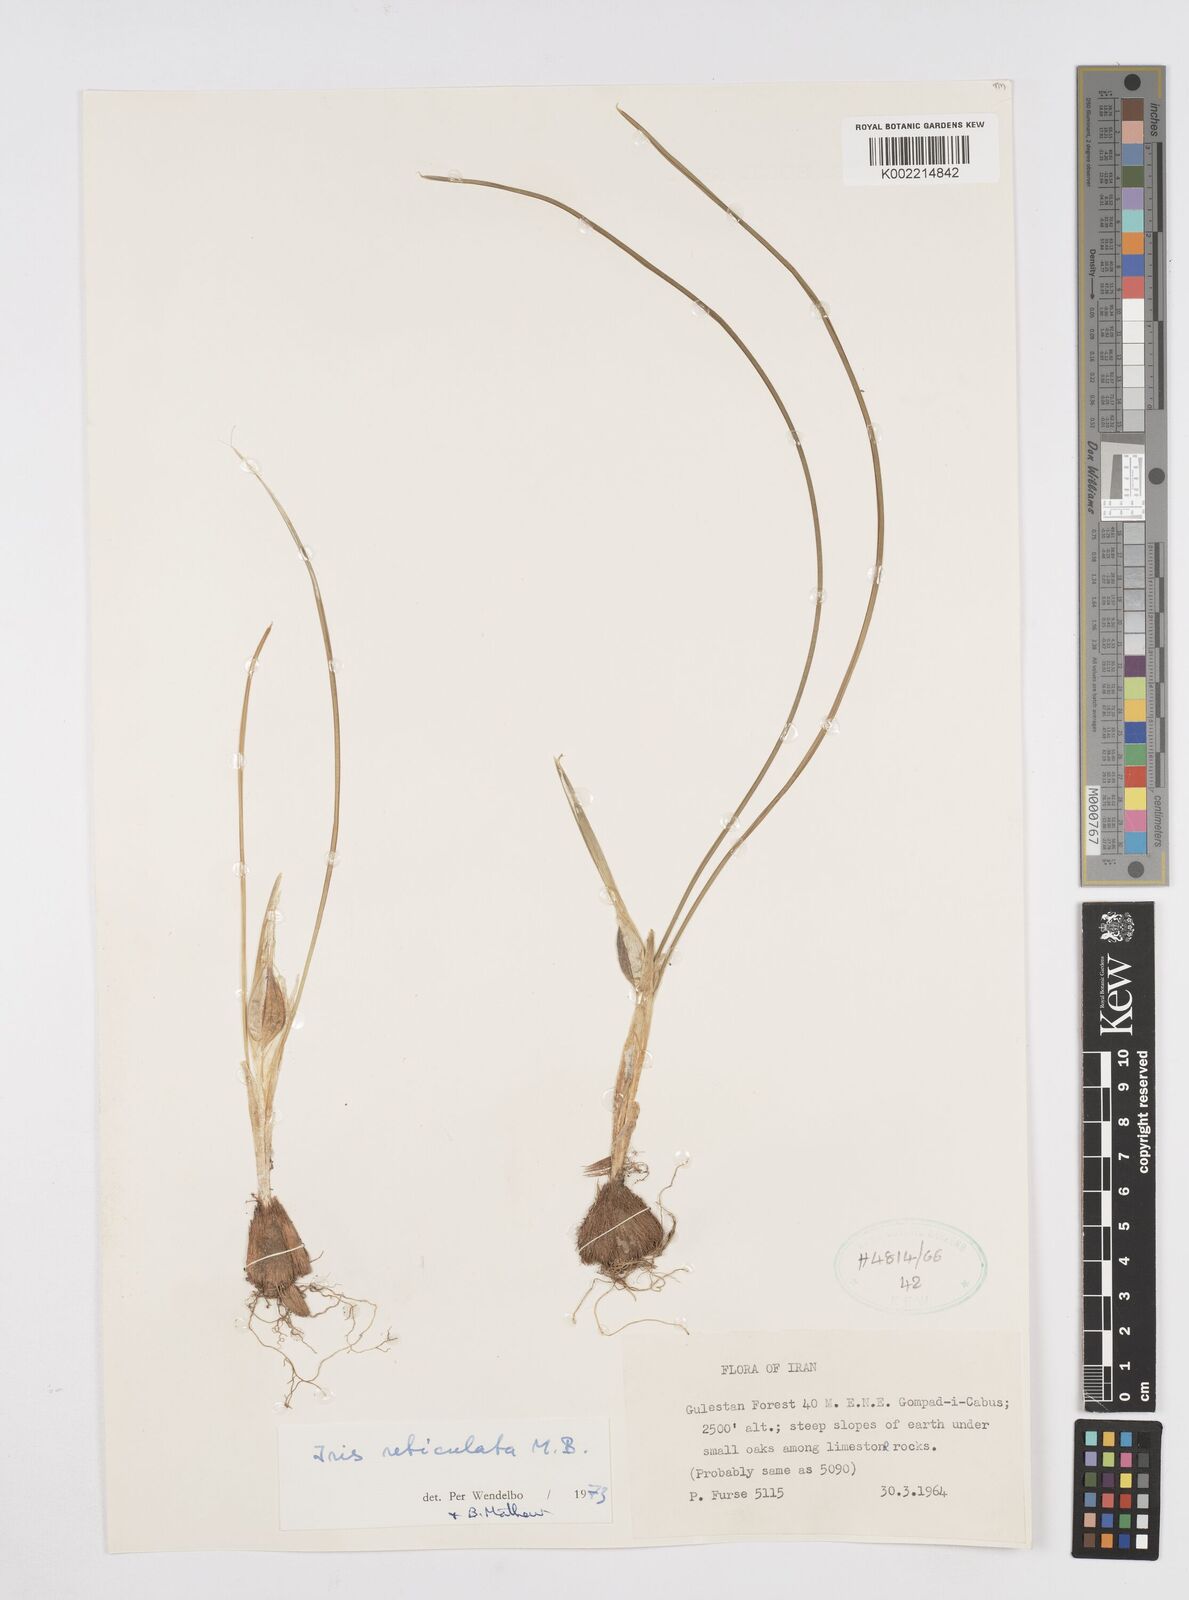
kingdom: Plantae
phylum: Tracheophyta
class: Liliopsida
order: Asparagales
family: Iridaceae
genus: Iris
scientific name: Iris reticulata
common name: Netted iris
